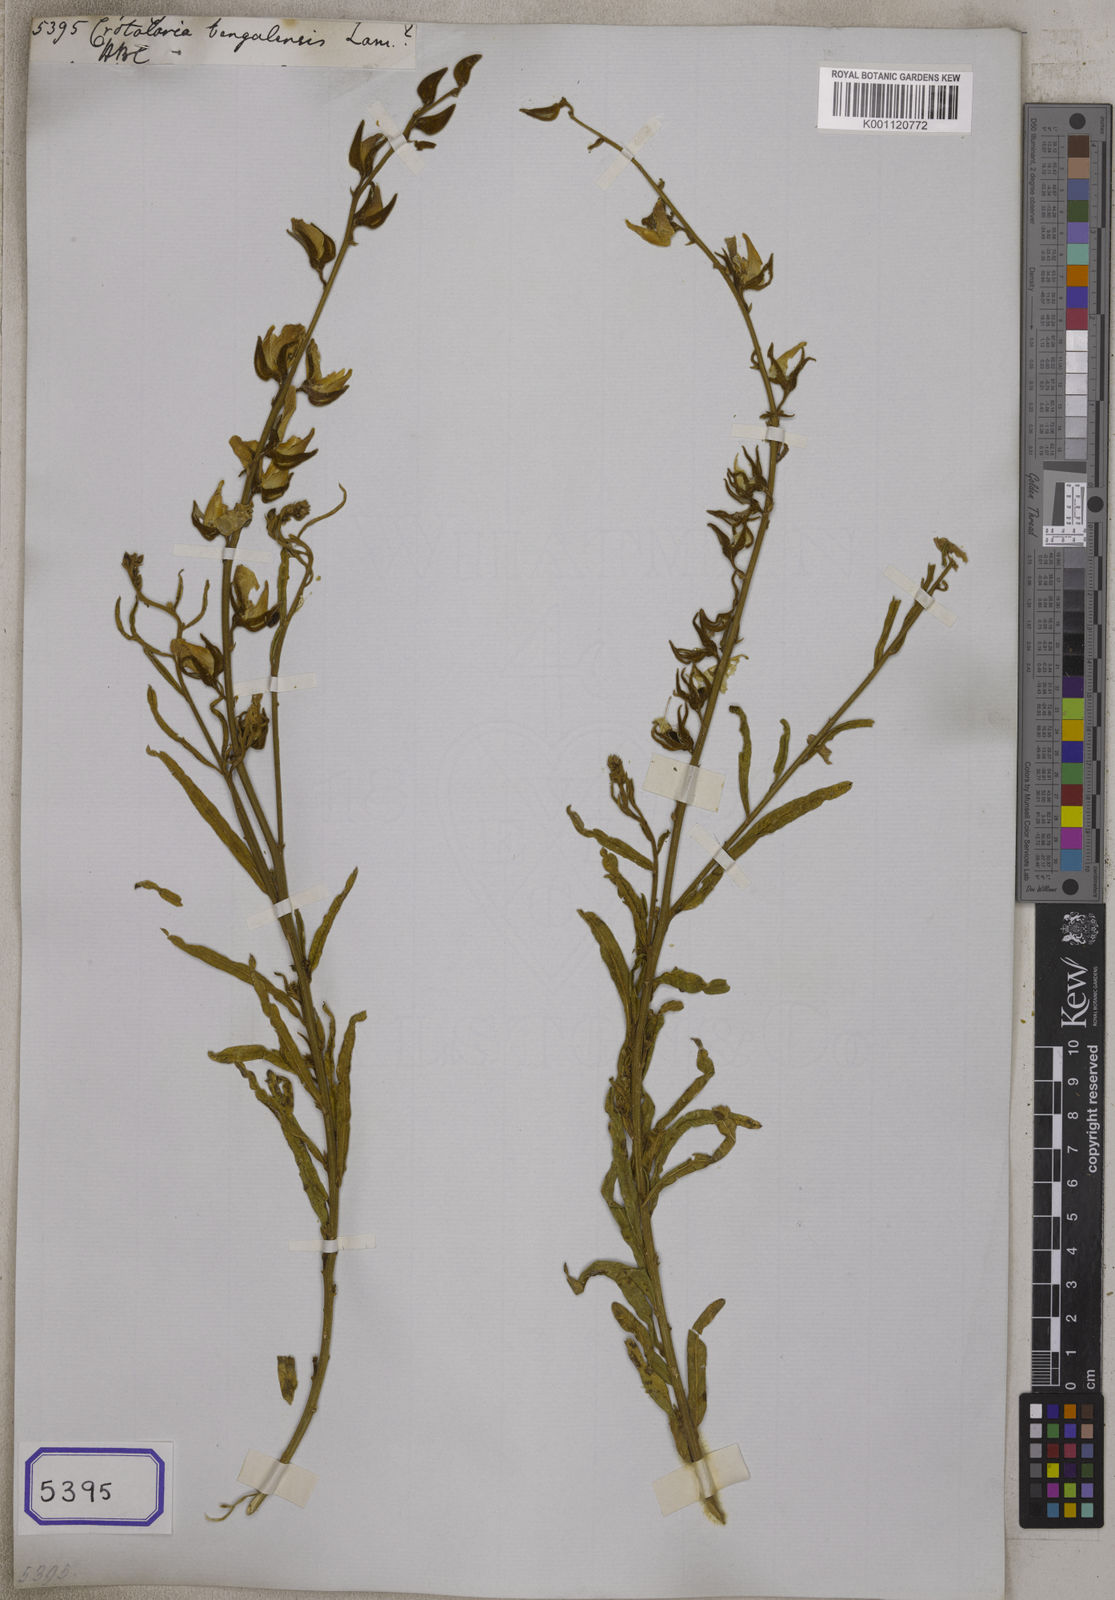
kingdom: Plantae
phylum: Tracheophyta
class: Magnoliopsida
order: Fabales
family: Fabaceae
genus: Crotalaria
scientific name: Crotalaria juncea
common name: Sunn hemp
